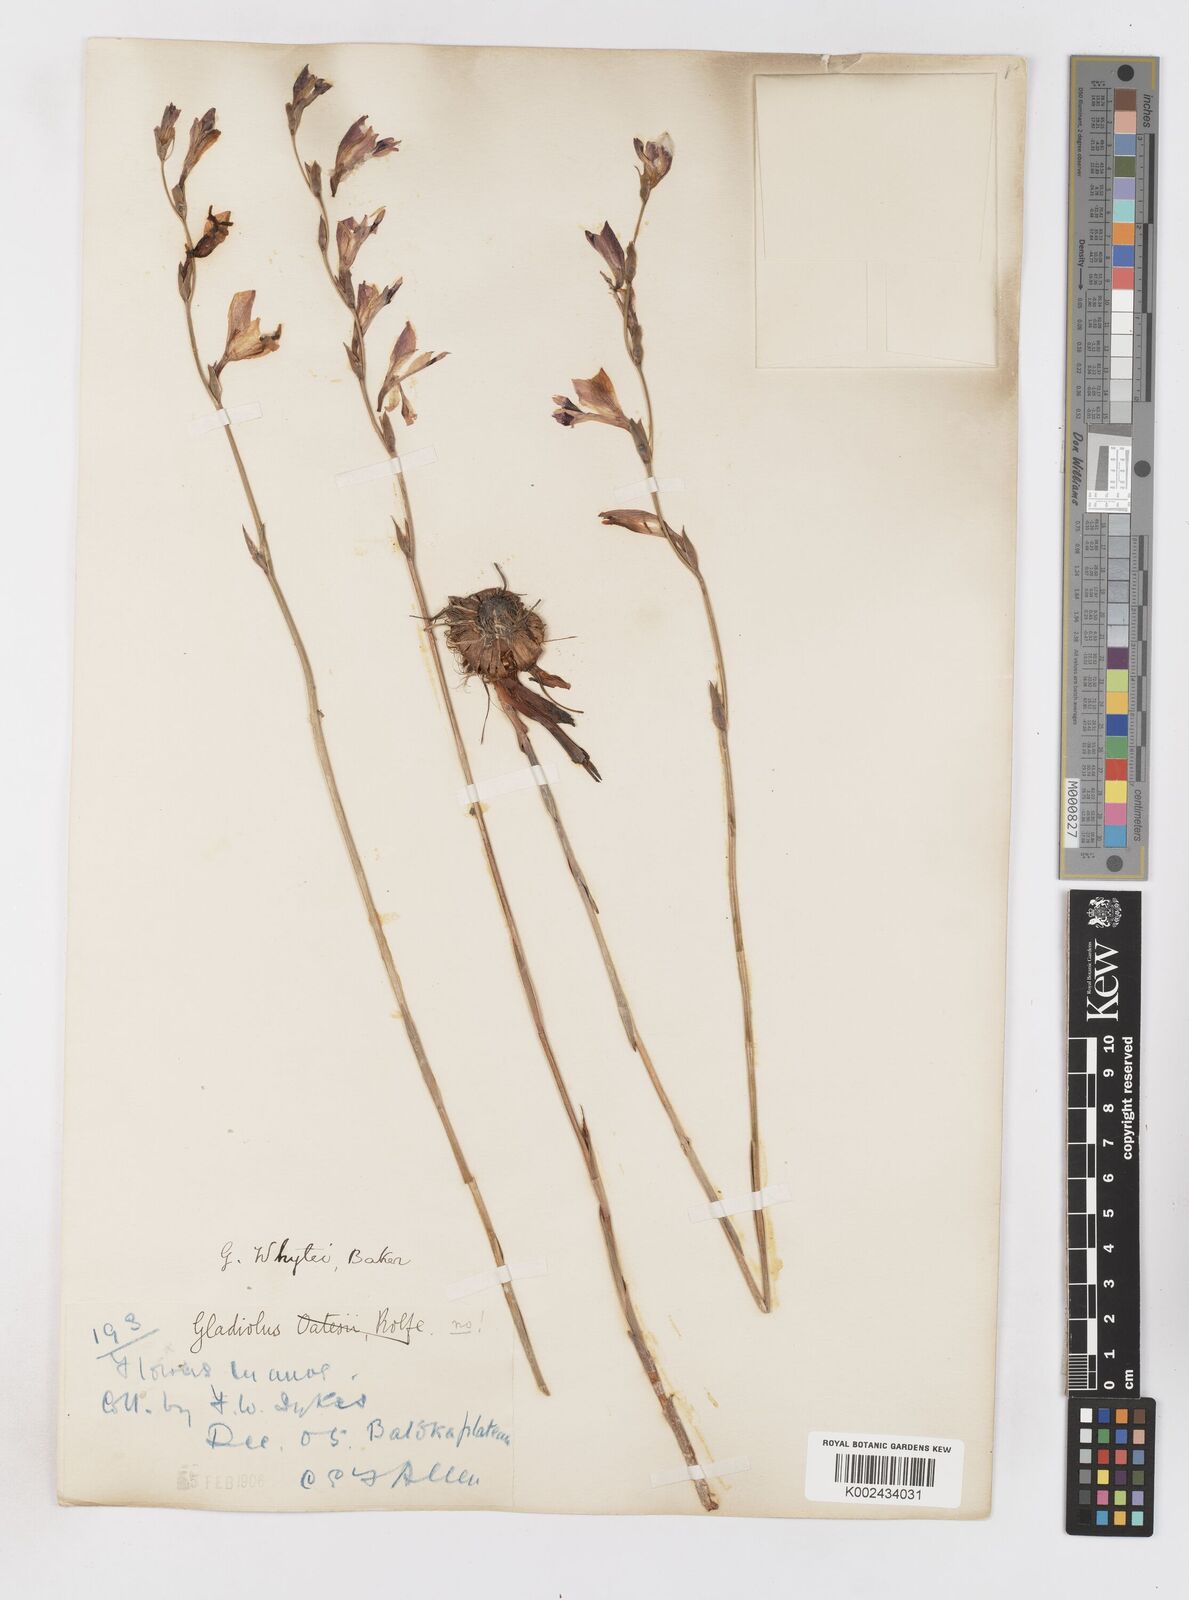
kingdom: Plantae
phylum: Tracheophyta
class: Liliopsida
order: Asparagales
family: Iridaceae
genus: Gladiolus
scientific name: Gladiolus atropurpureus
